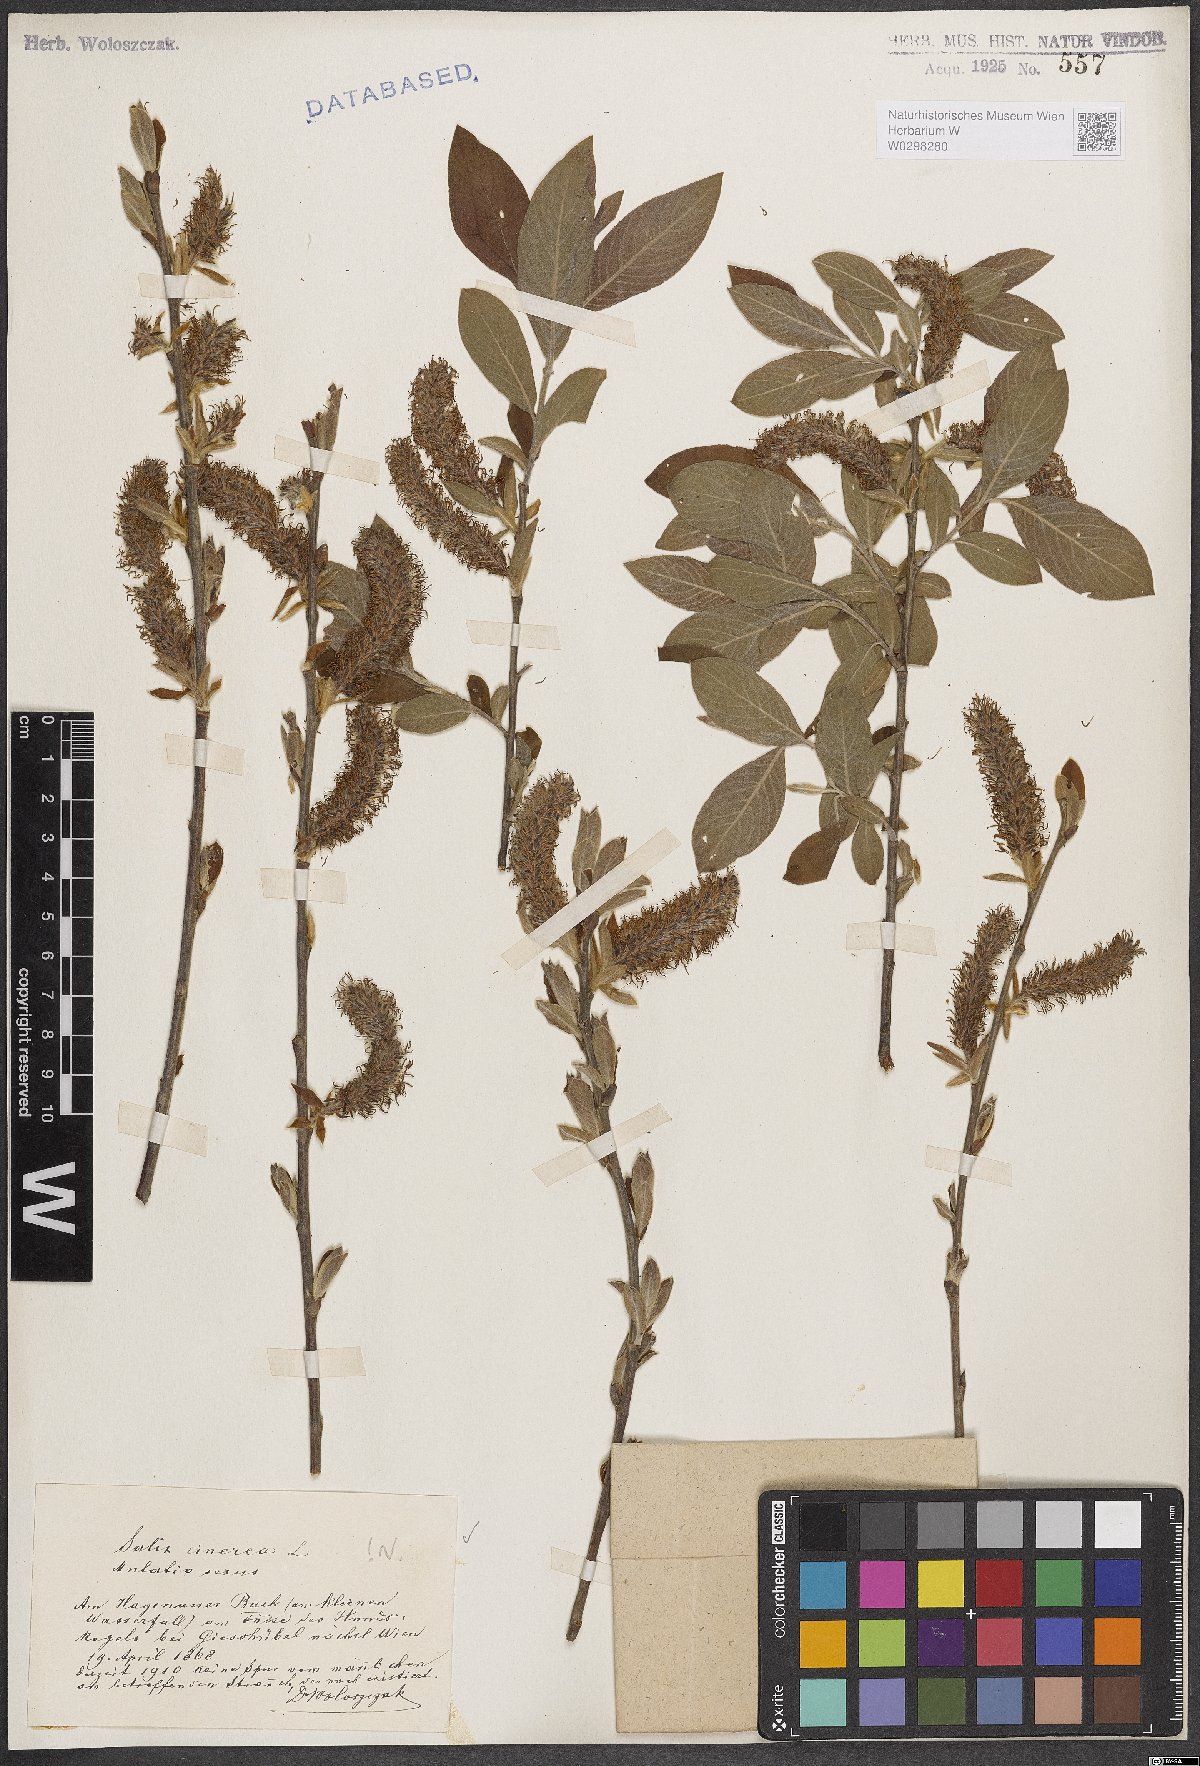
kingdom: Plantae
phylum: Tracheophyta
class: Magnoliopsida
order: Malpighiales
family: Salicaceae
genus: Salix
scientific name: Salix cinerea
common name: Common sallow
